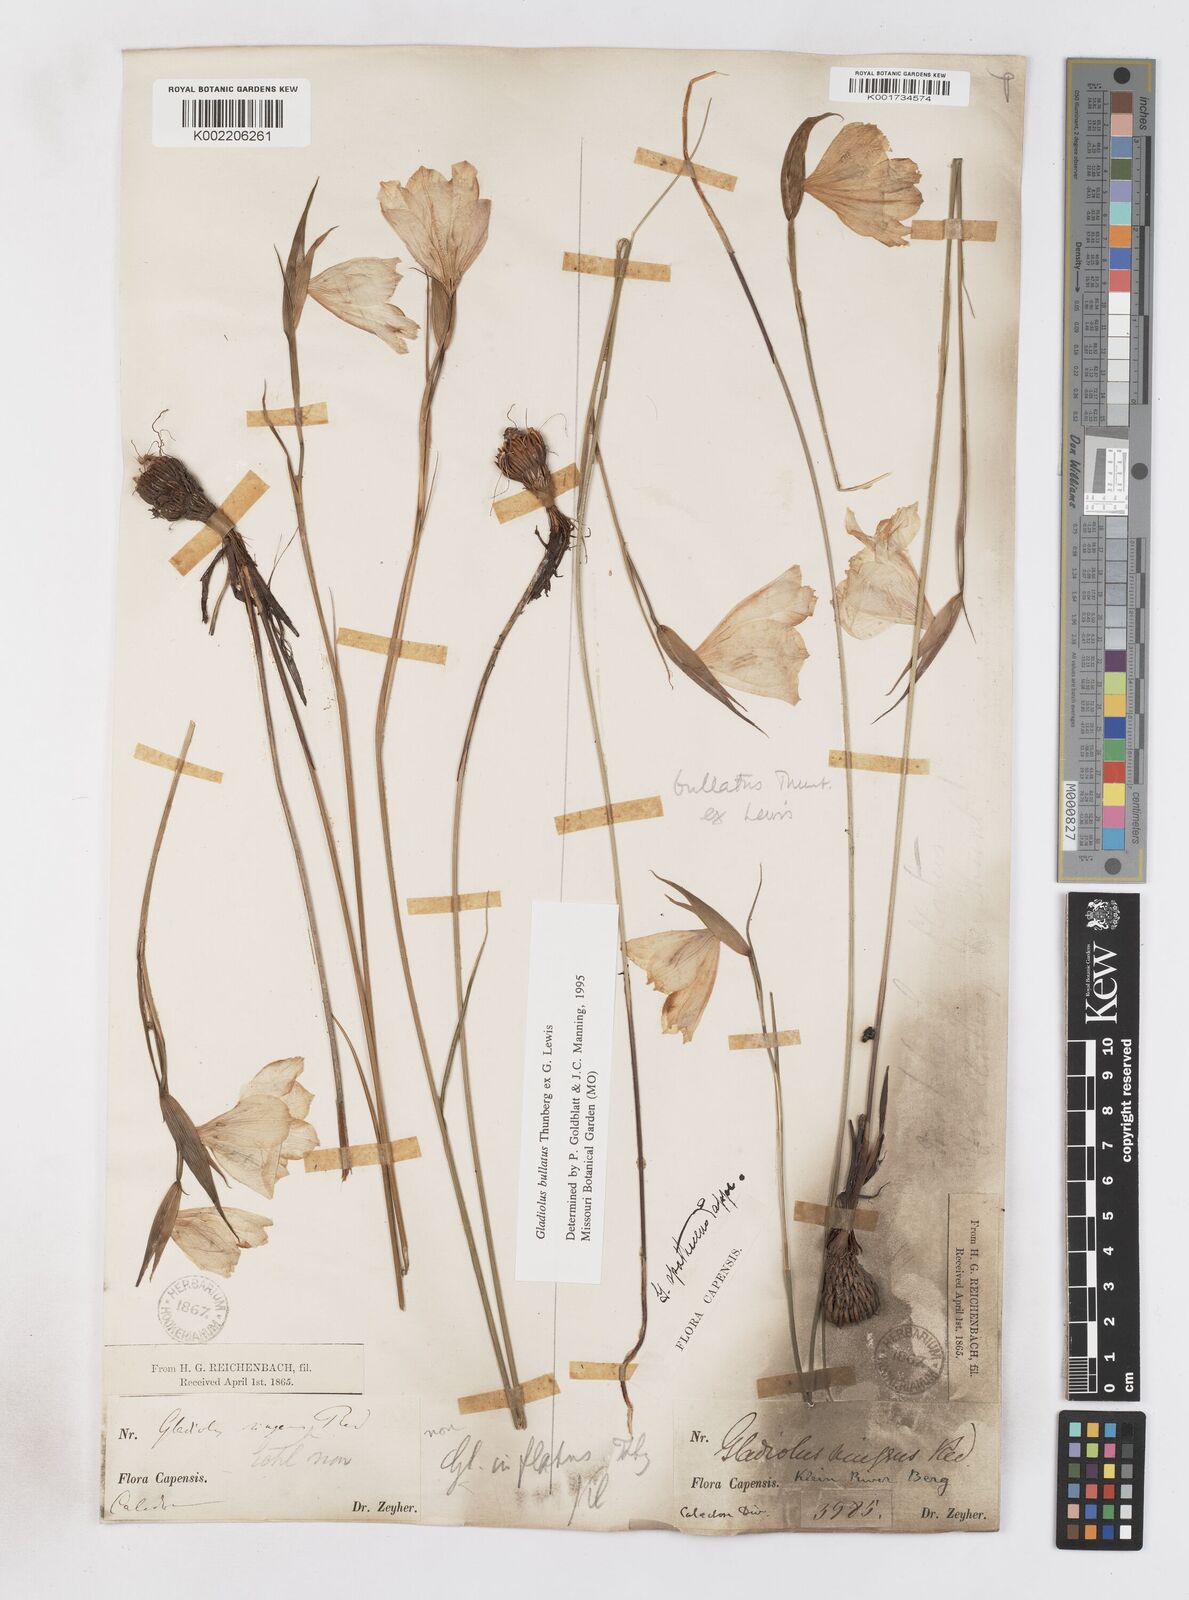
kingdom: Plantae
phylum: Tracheophyta
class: Liliopsida
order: Asparagales
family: Iridaceae
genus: Gladiolus
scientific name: Gladiolus bullatus
